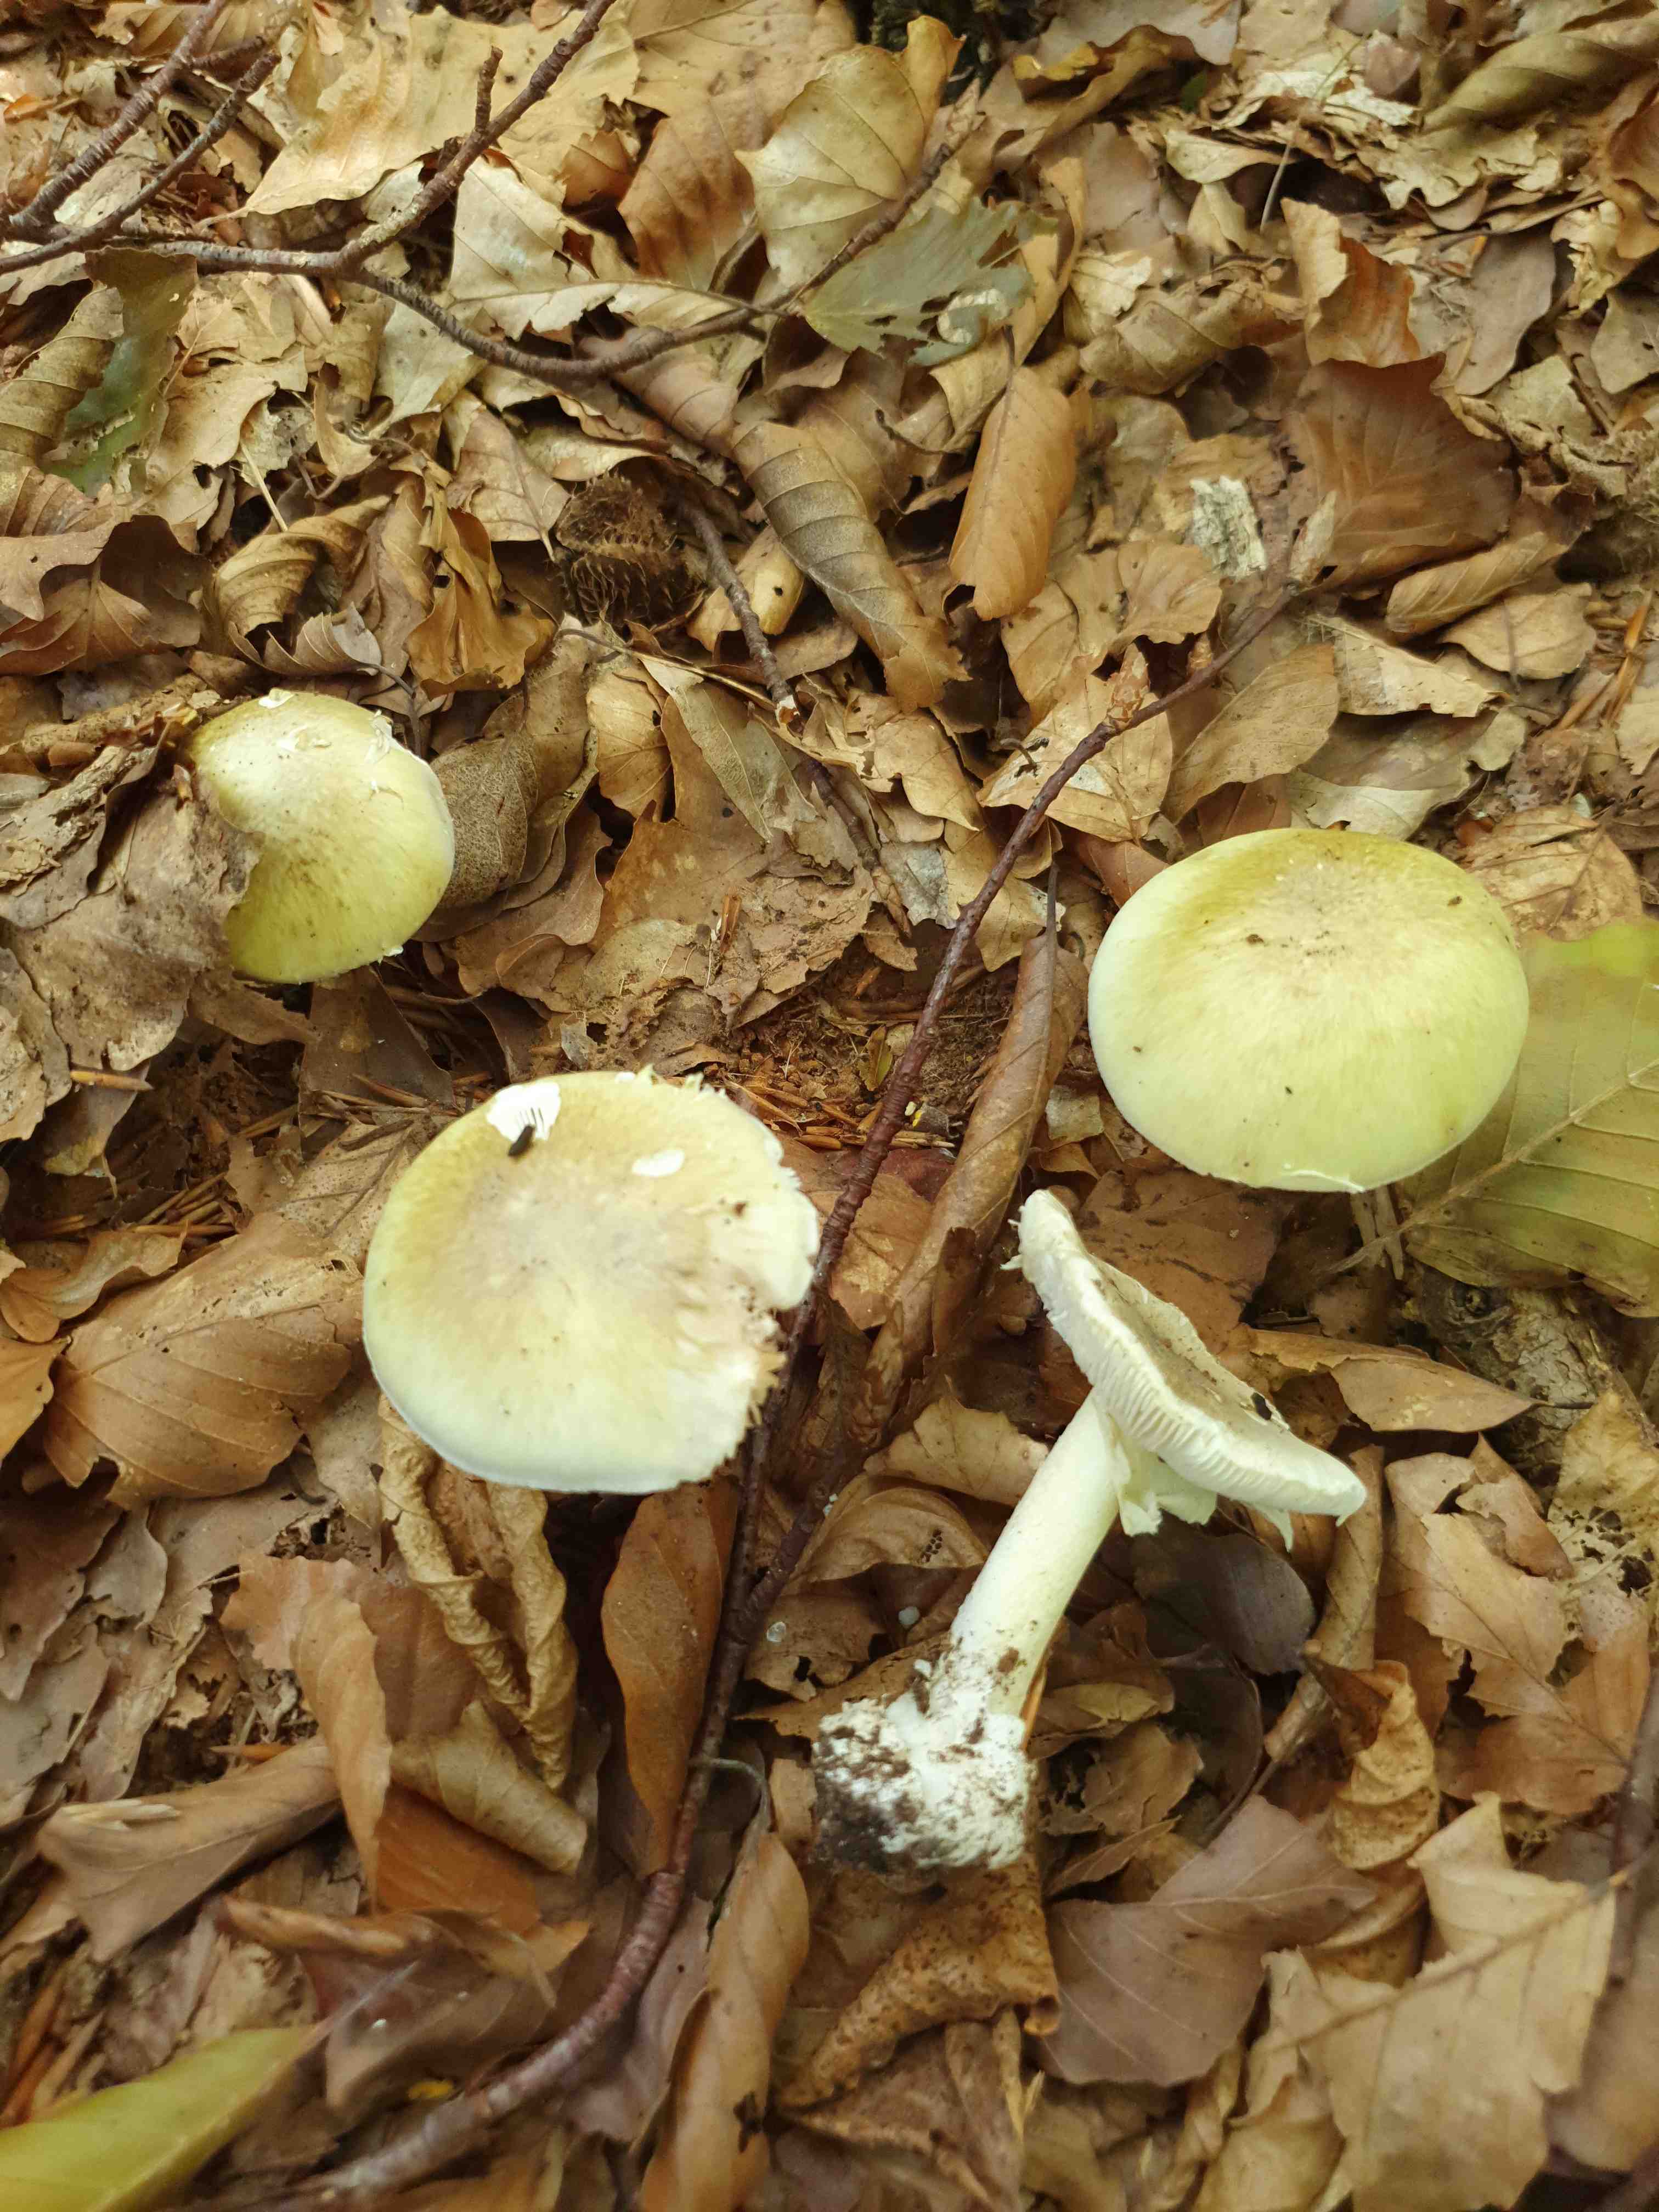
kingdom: Fungi
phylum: Basidiomycota
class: Agaricomycetes
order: Agaricales
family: Amanitaceae
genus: Amanita
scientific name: Amanita phalloides
